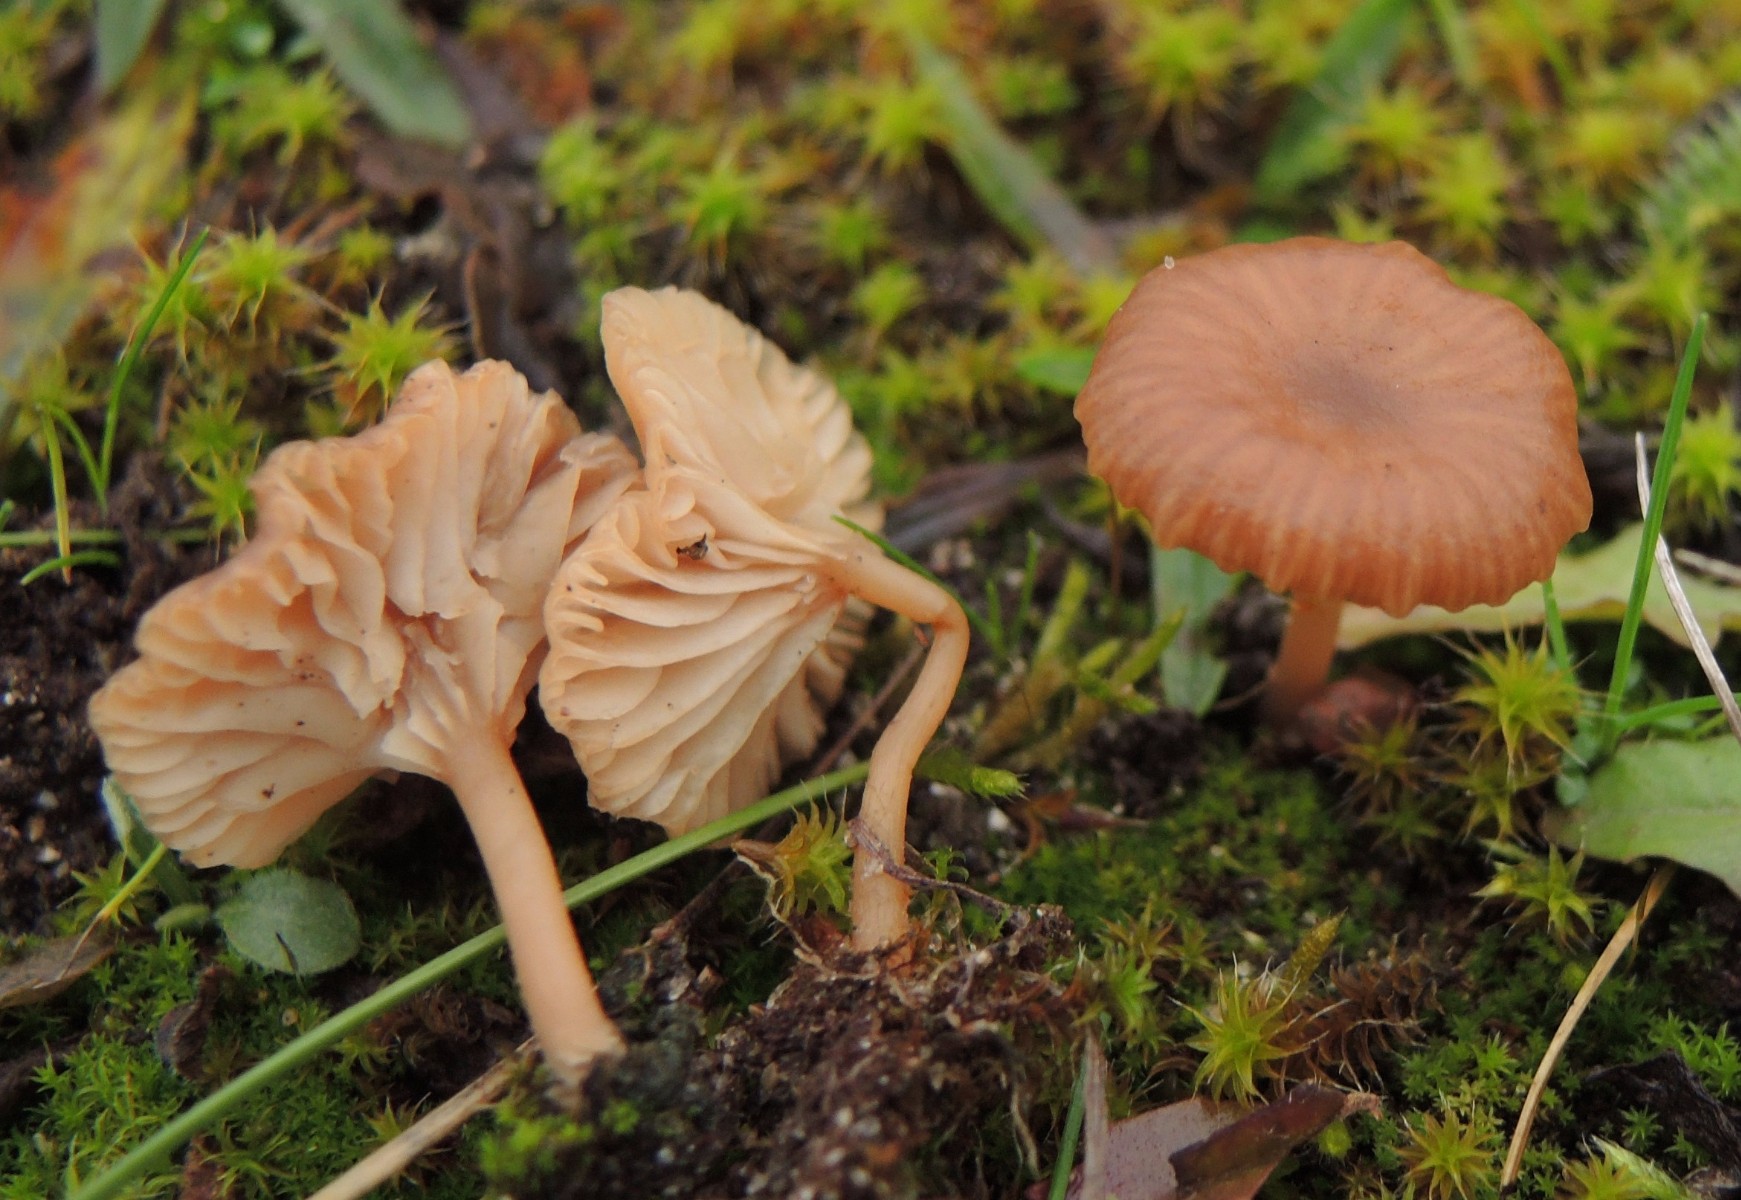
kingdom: Fungi
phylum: Basidiomycota
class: Agaricomycetes
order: Agaricales
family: Tricholomataceae
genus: Omphalina
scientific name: Omphalina pyxidata
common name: rødbrun navlehat
